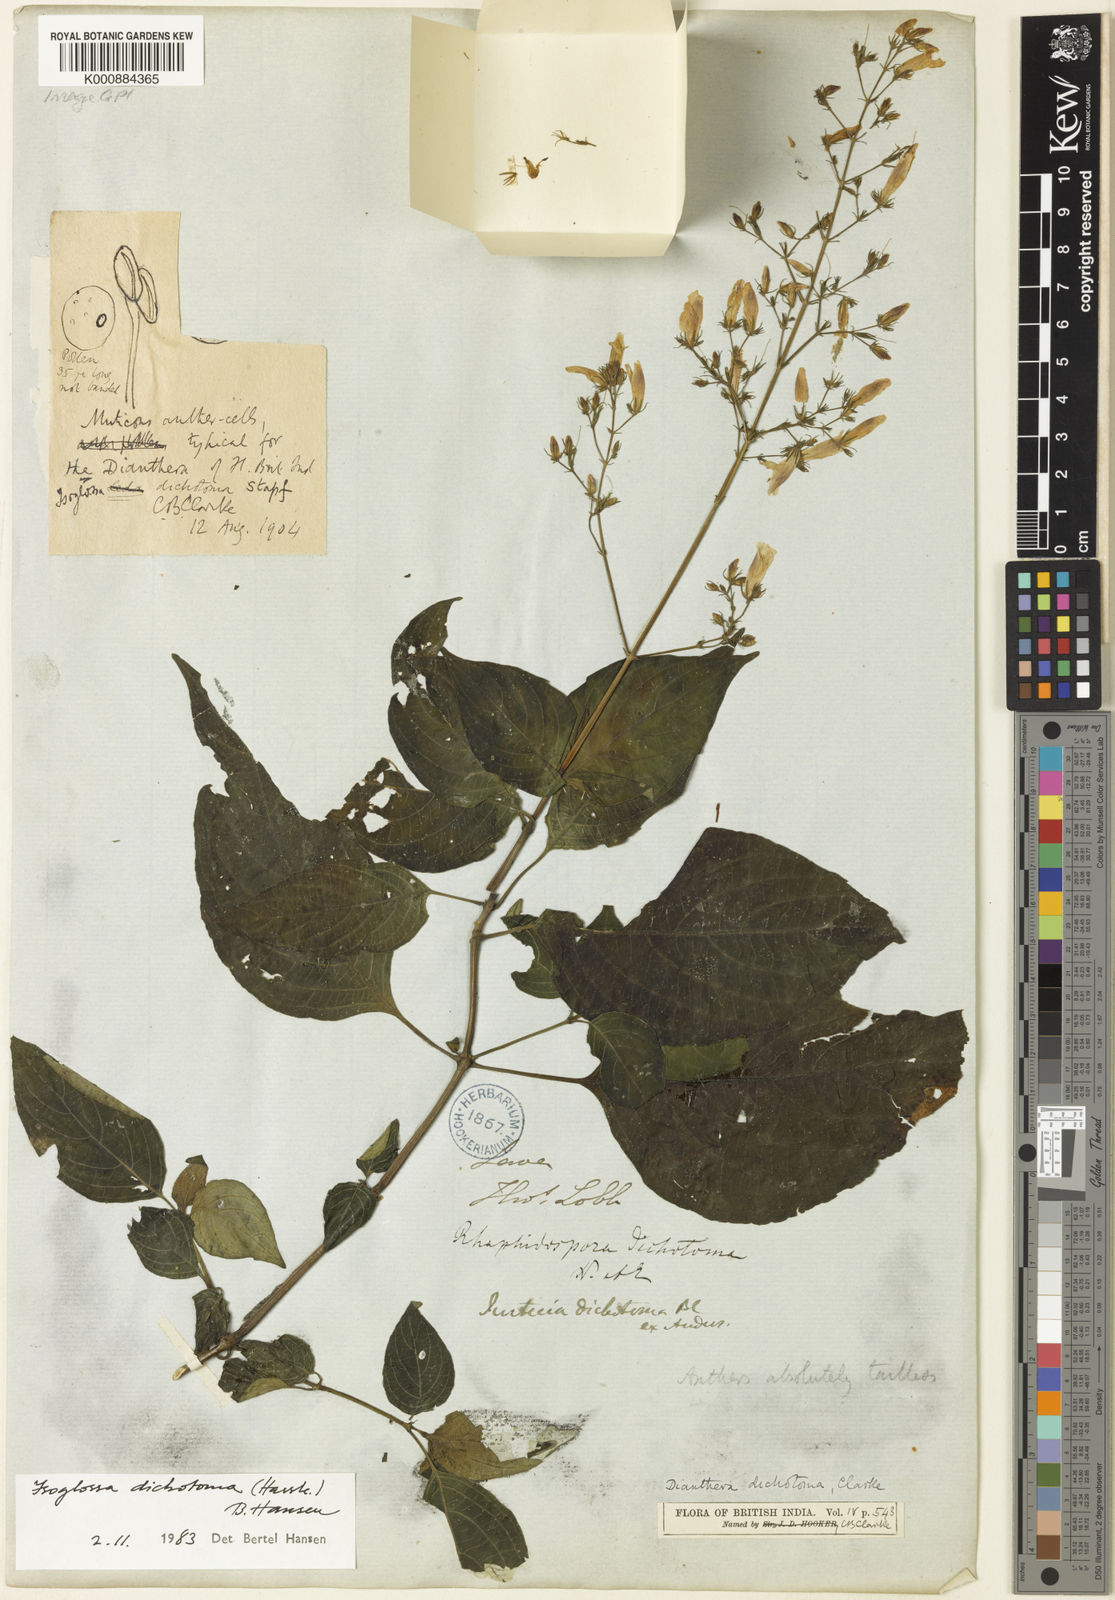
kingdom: Plantae
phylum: Tracheophyta
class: Magnoliopsida
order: Lamiales
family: Acanthaceae
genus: Isoglossa
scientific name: Isoglossa dichotoma
